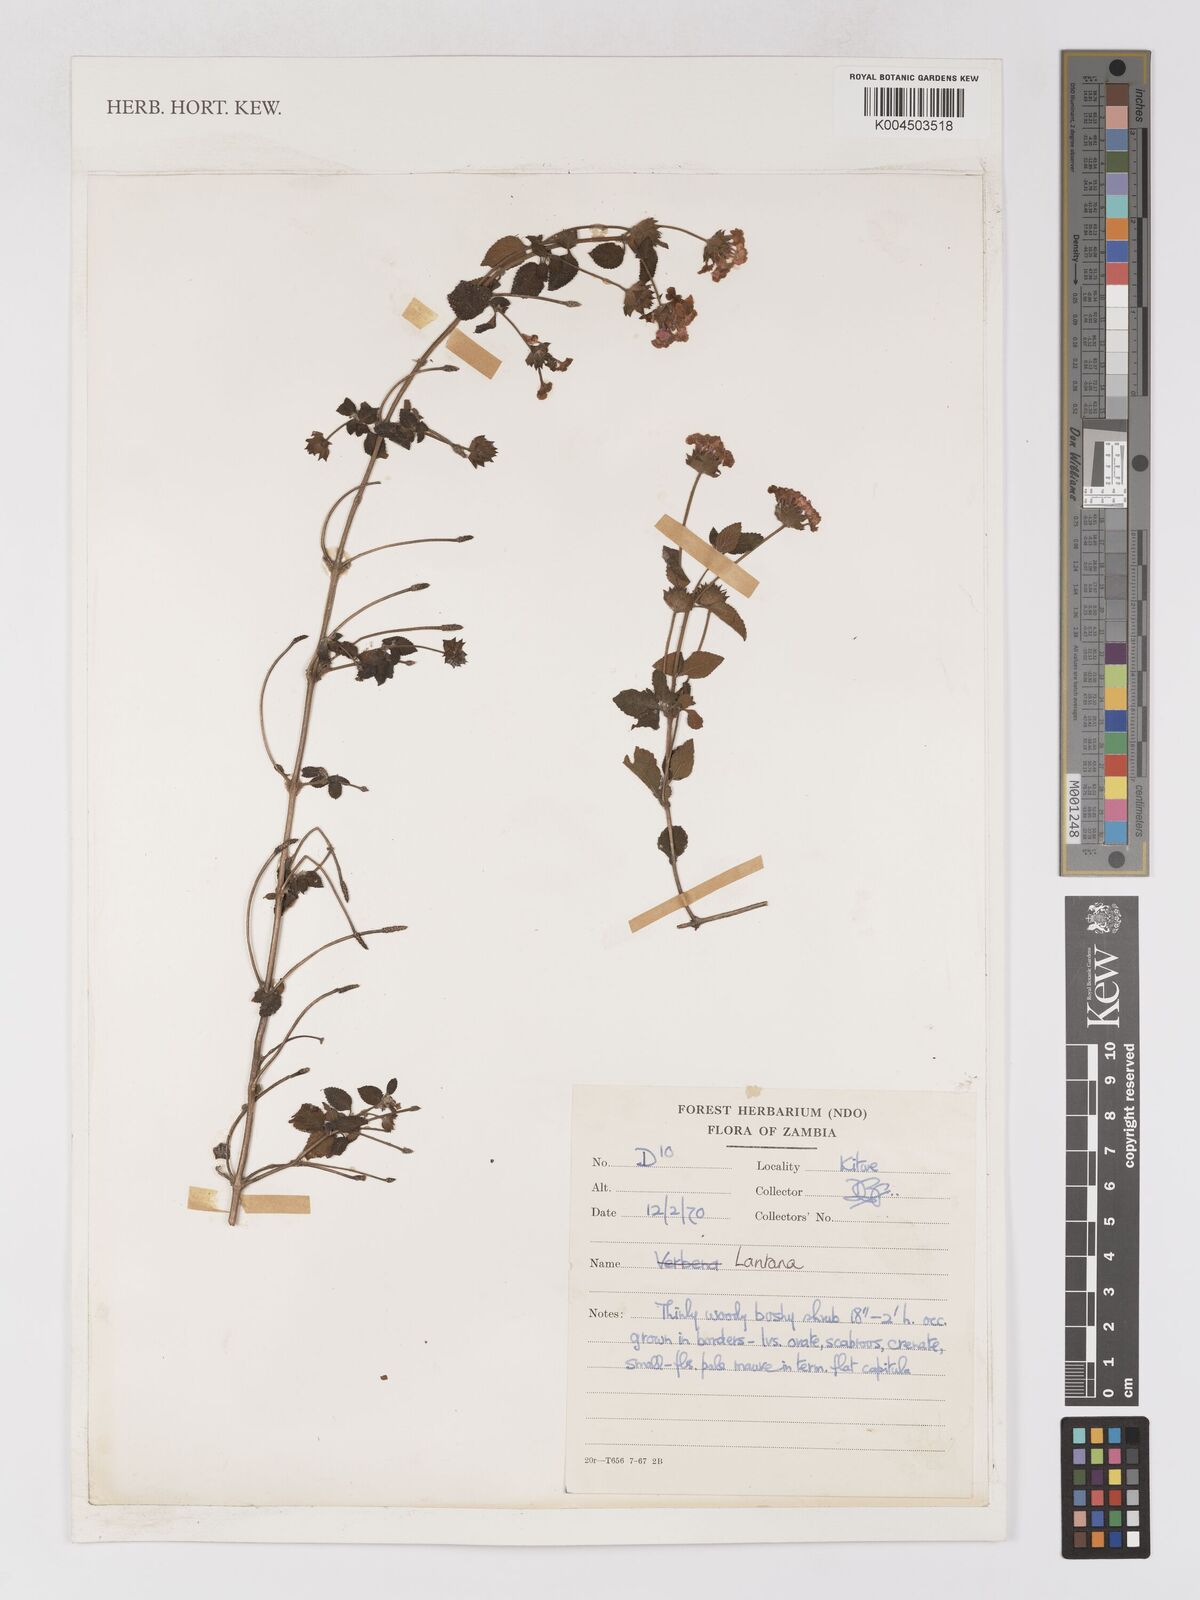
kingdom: Plantae
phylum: Tracheophyta
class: Magnoliopsida
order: Lamiales
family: Verbenaceae
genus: Lantana
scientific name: Lantana
